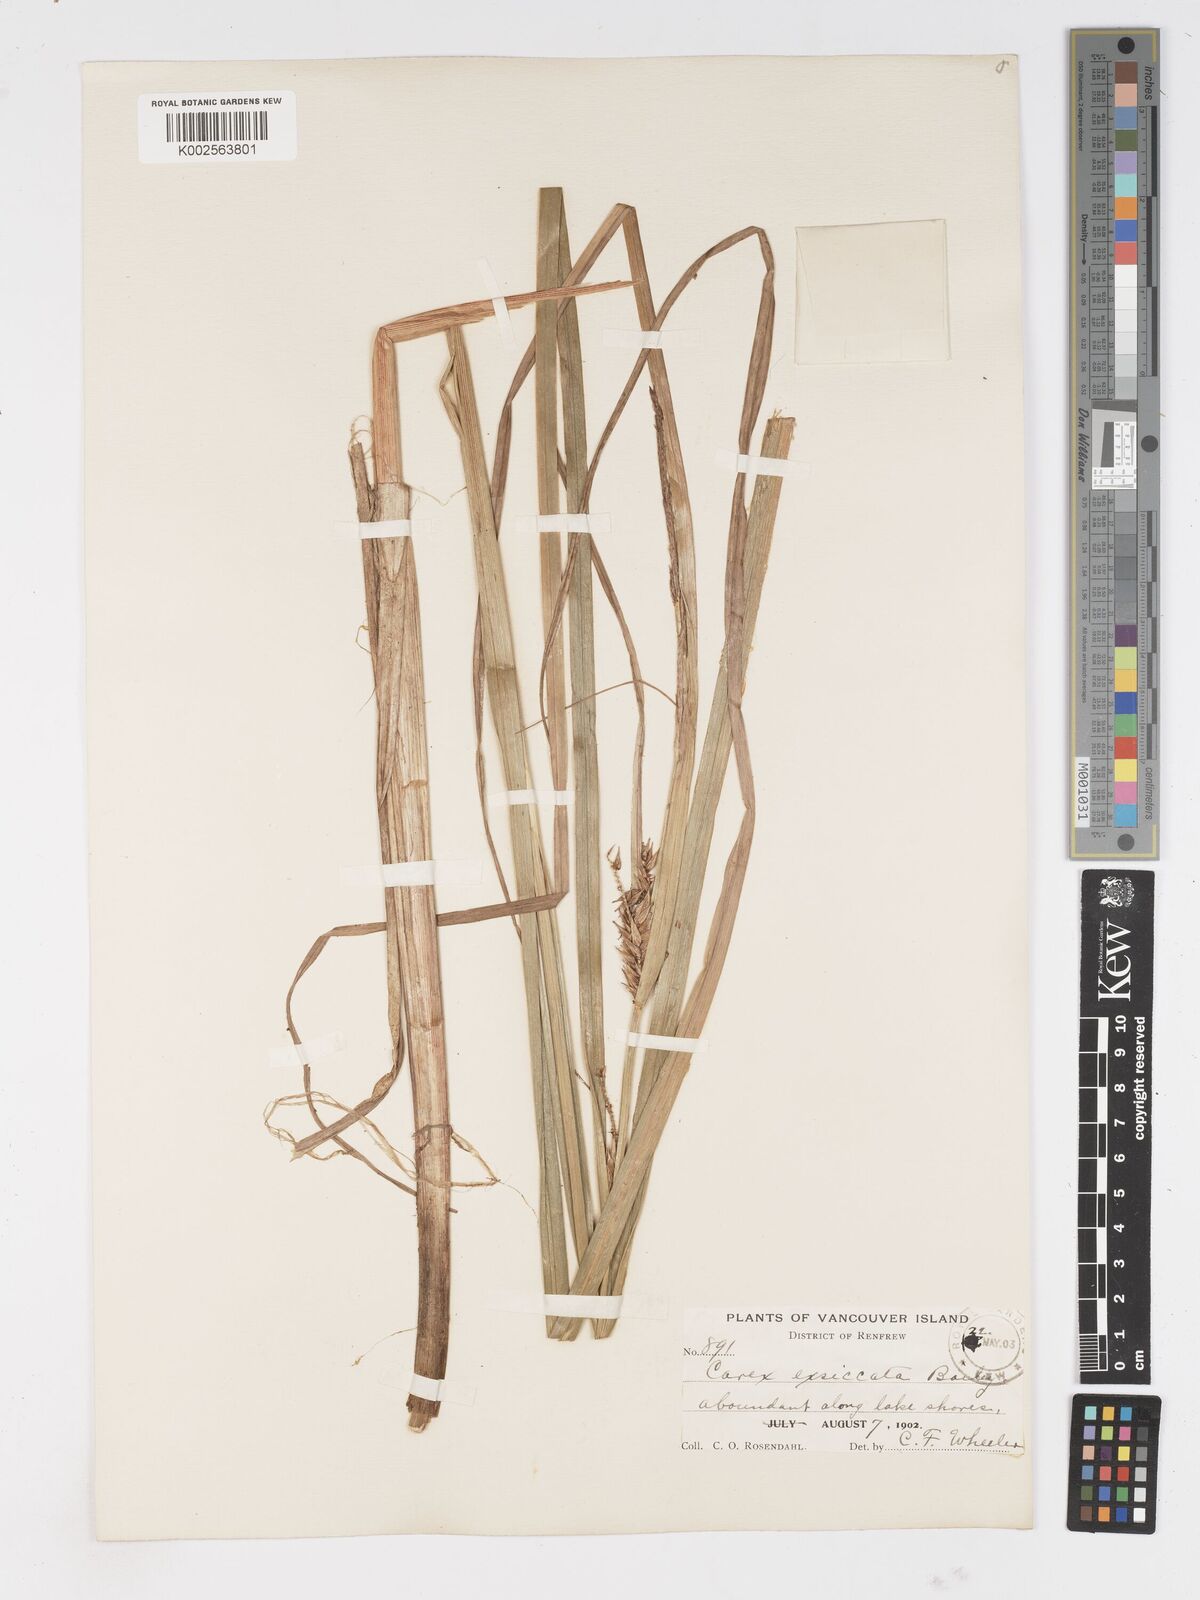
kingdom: Plantae
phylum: Tracheophyta
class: Liliopsida
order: Poales
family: Cyperaceae
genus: Carex
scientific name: Carex exsiccata
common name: Beaked sedge
